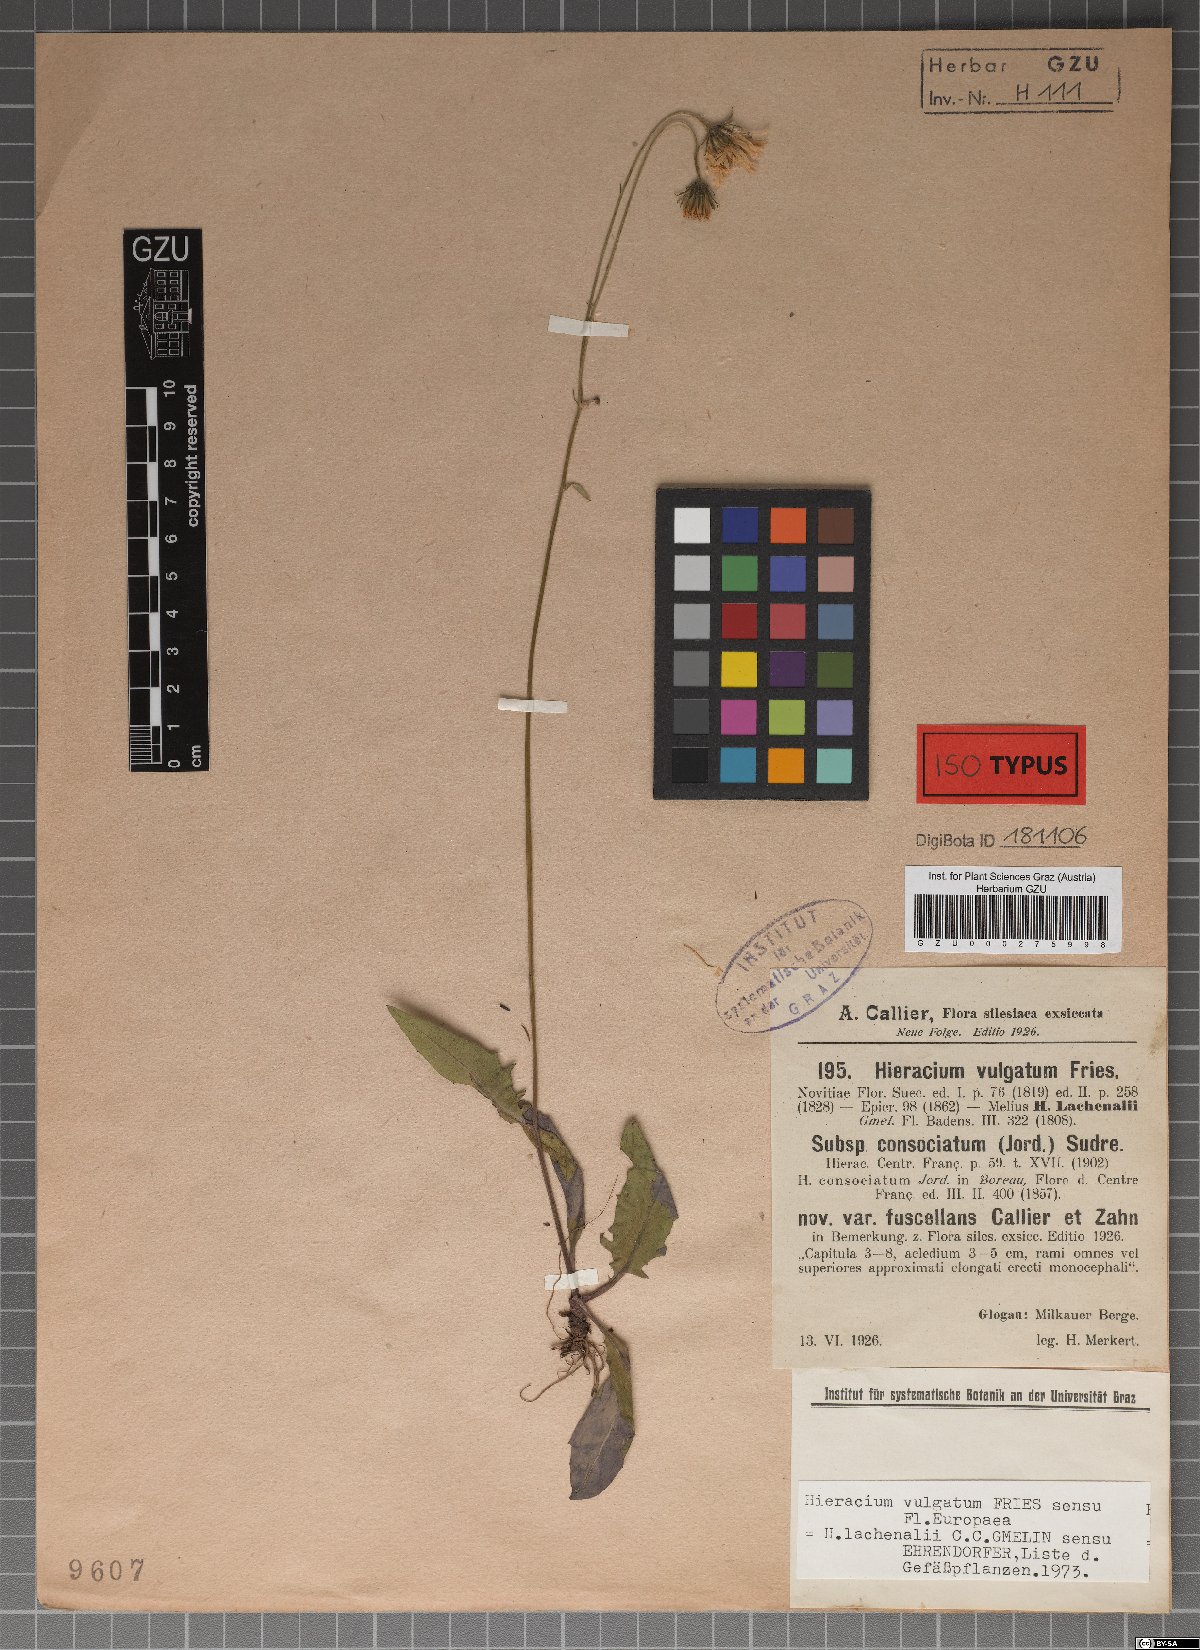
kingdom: Plantae
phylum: Tracheophyta
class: Magnoliopsida
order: Asterales
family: Asteraceae
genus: Hieracium
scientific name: Hieracium vulgatum
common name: Common hawkweed
